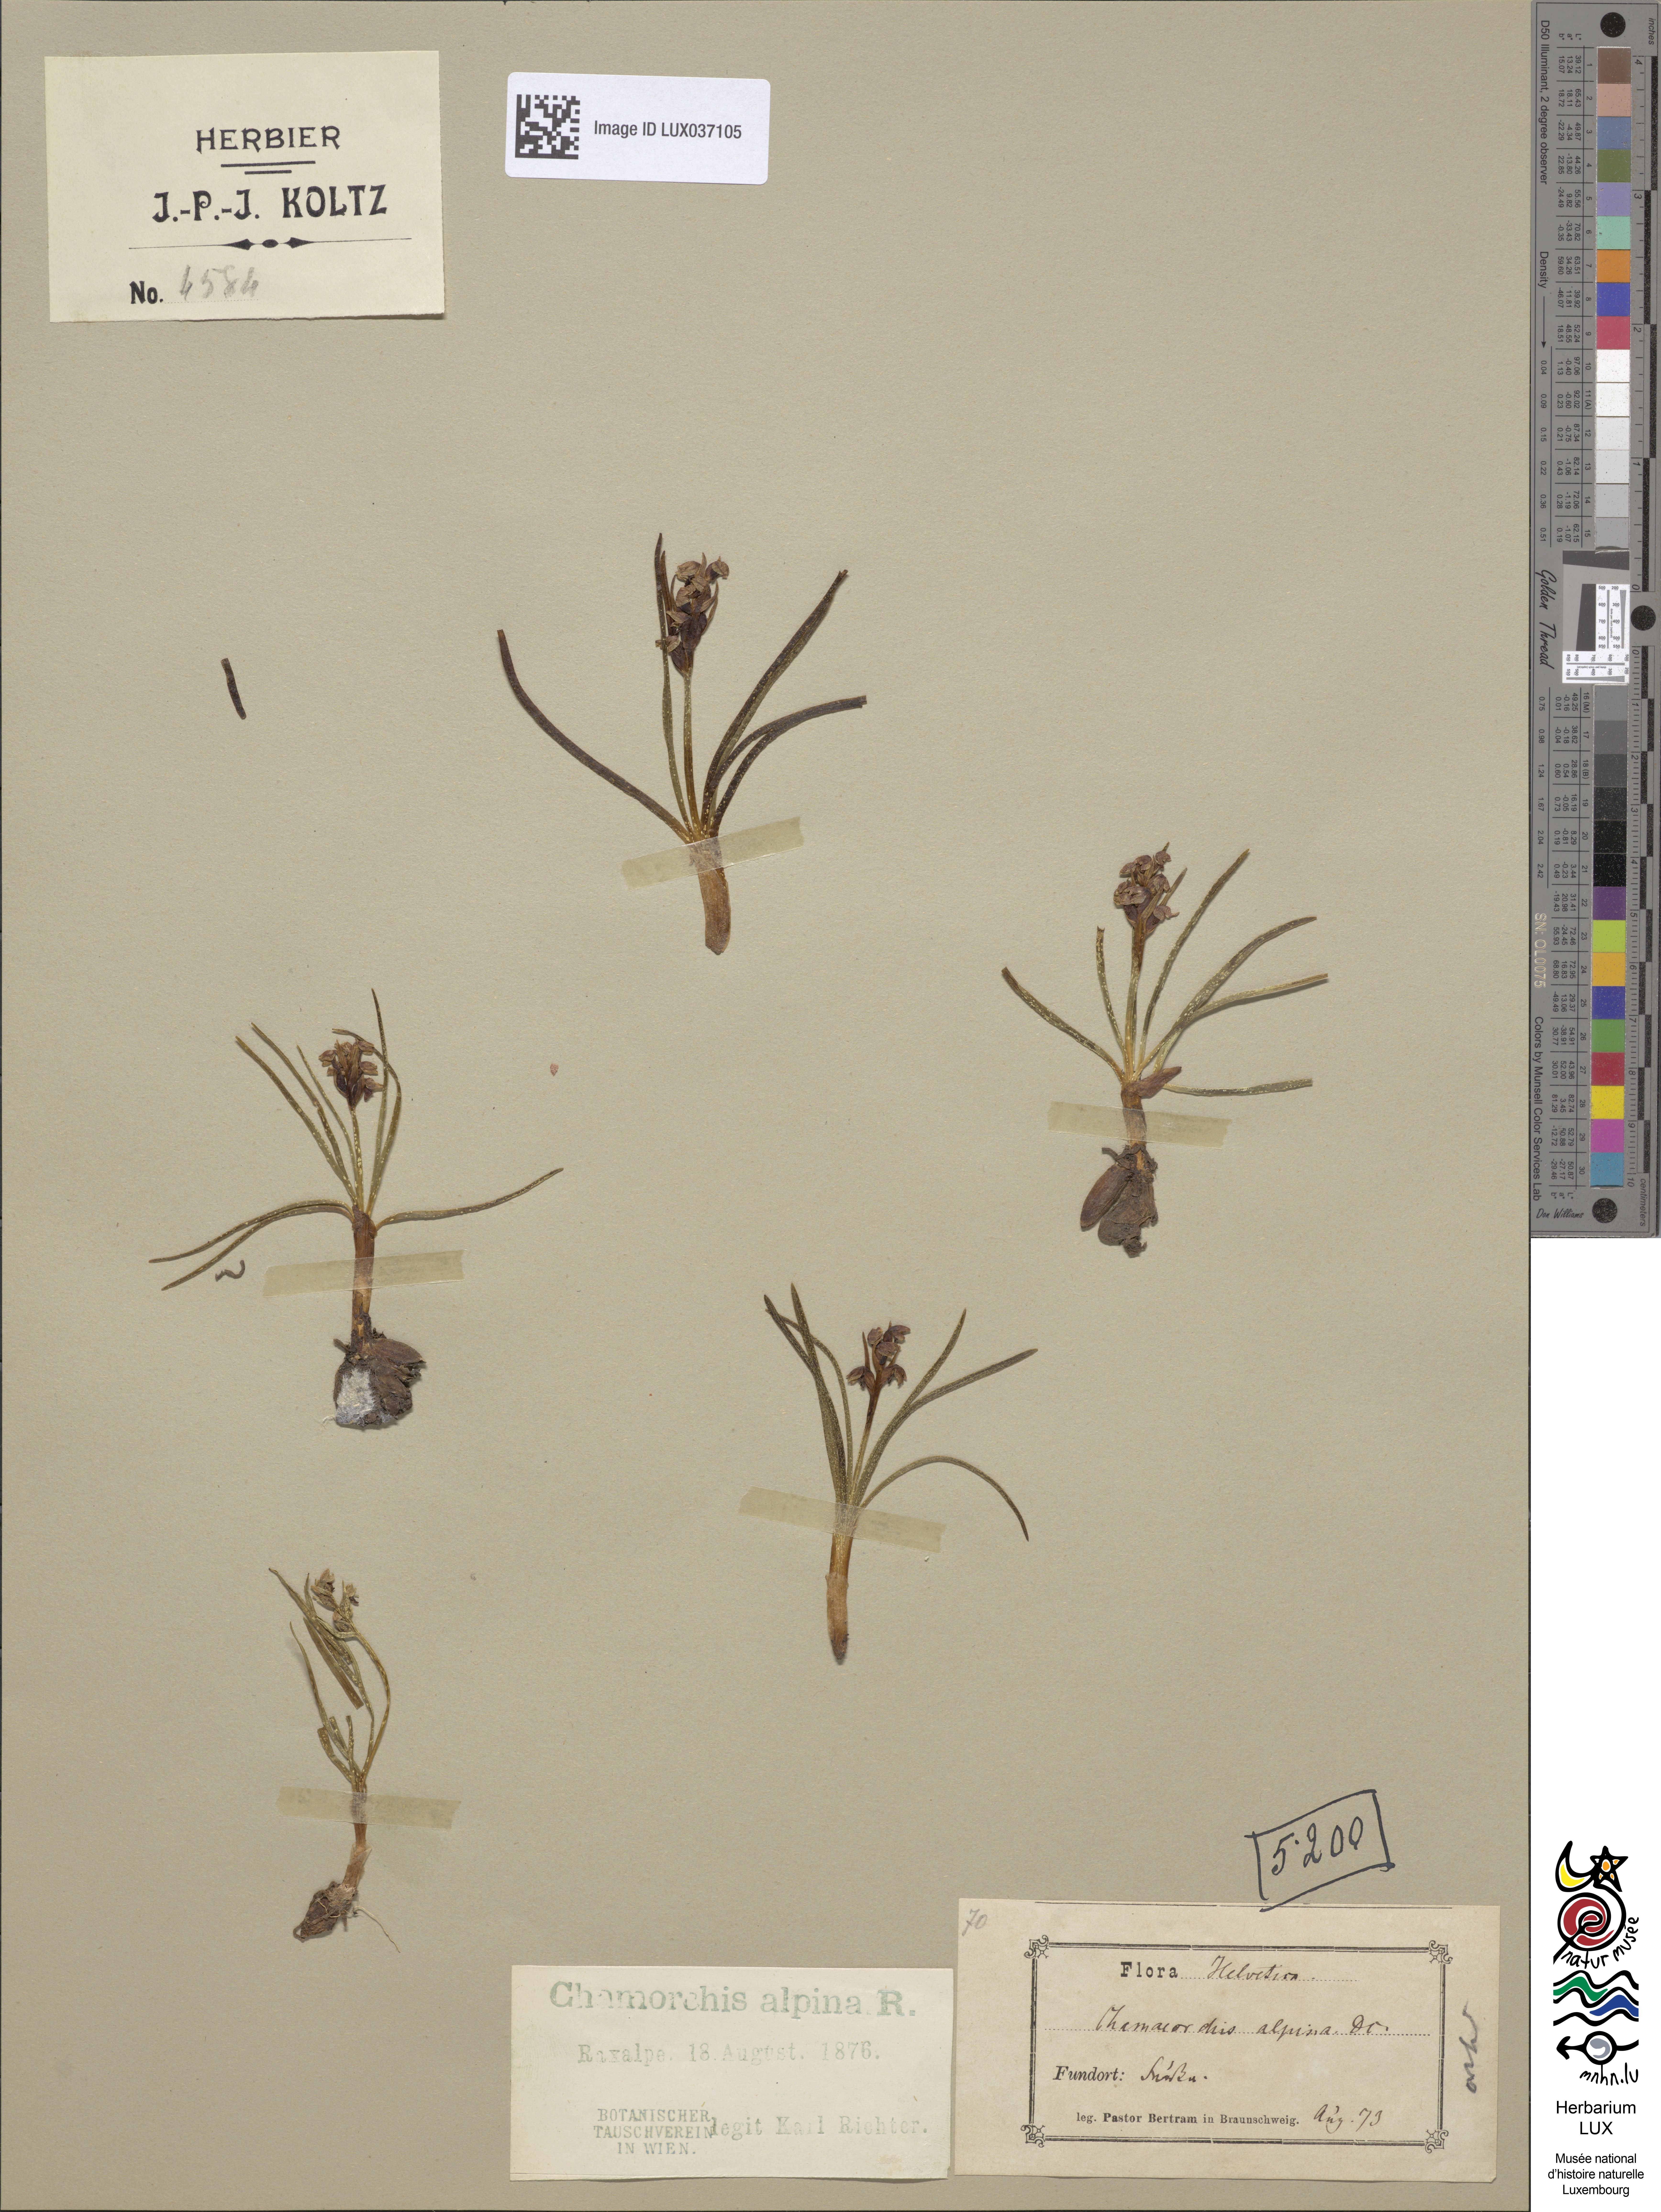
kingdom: Plantae
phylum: Tracheophyta
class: Liliopsida
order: Asparagales
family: Orchidaceae
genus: Chamorchis
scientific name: Chamorchis alpina
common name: Alpine chamorchis
